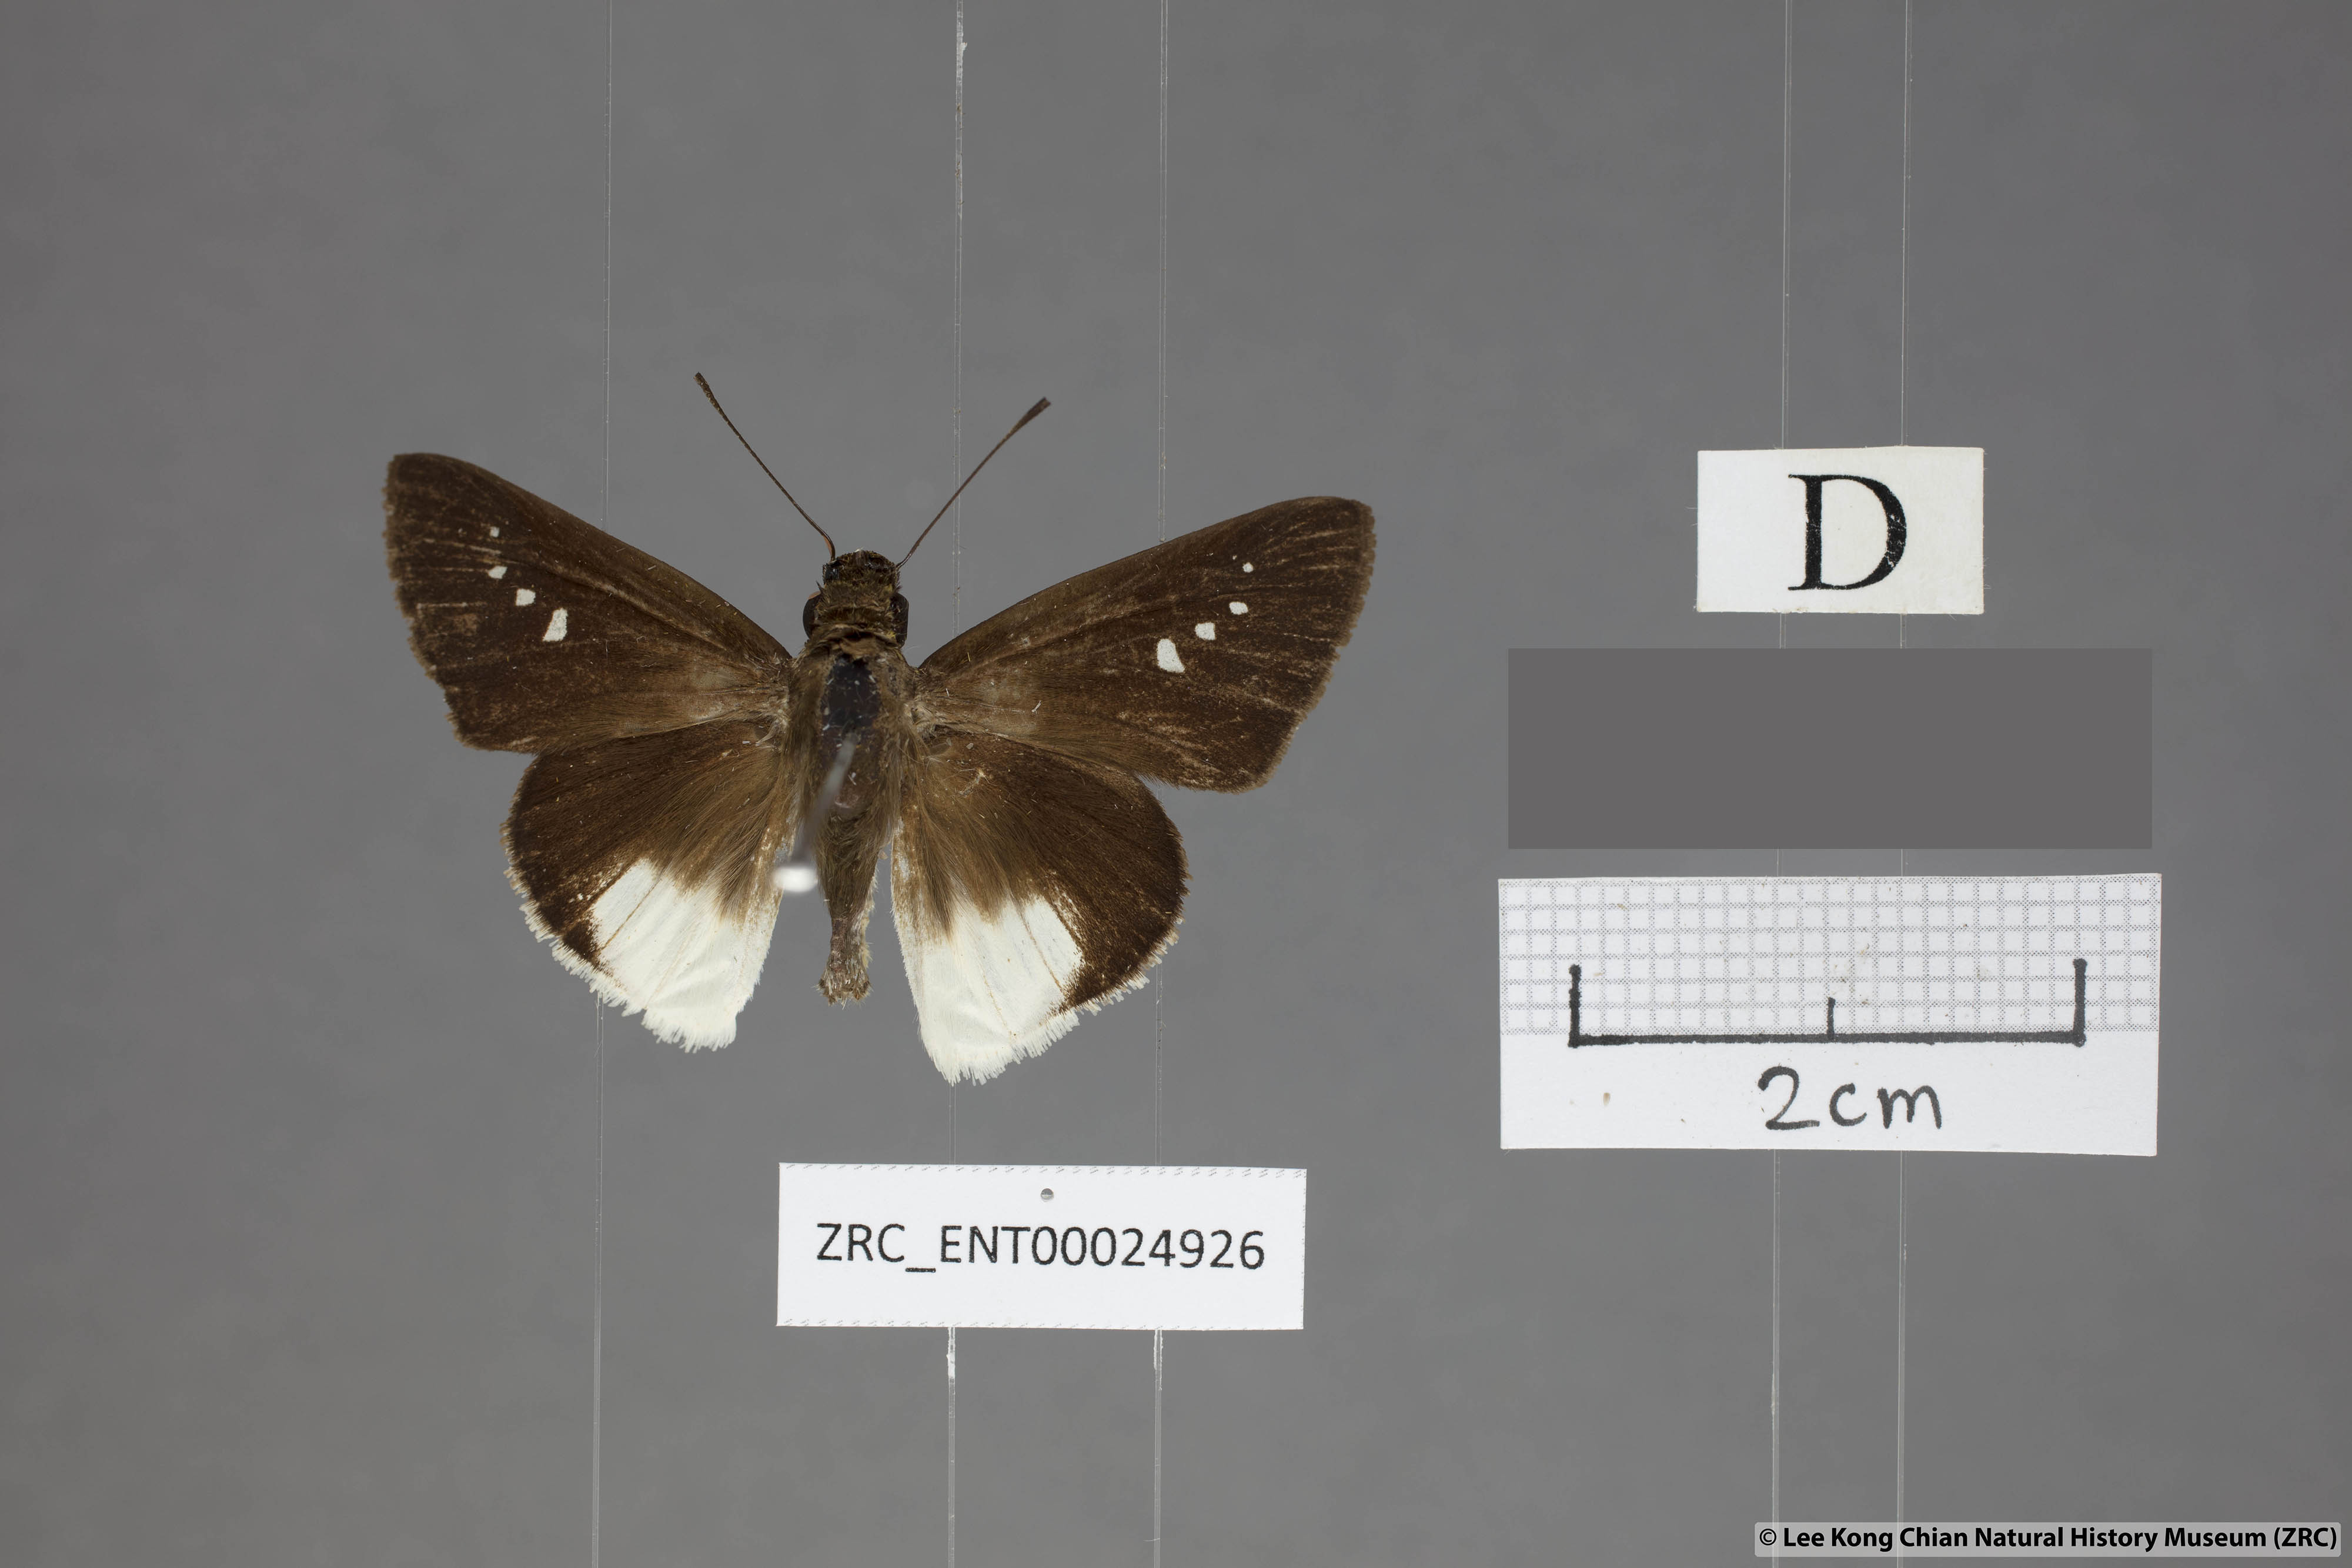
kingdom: Animalia
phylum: Arthropoda
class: Insecta
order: Lepidoptera
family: Hesperiidae
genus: Iton
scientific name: Iton semamora
